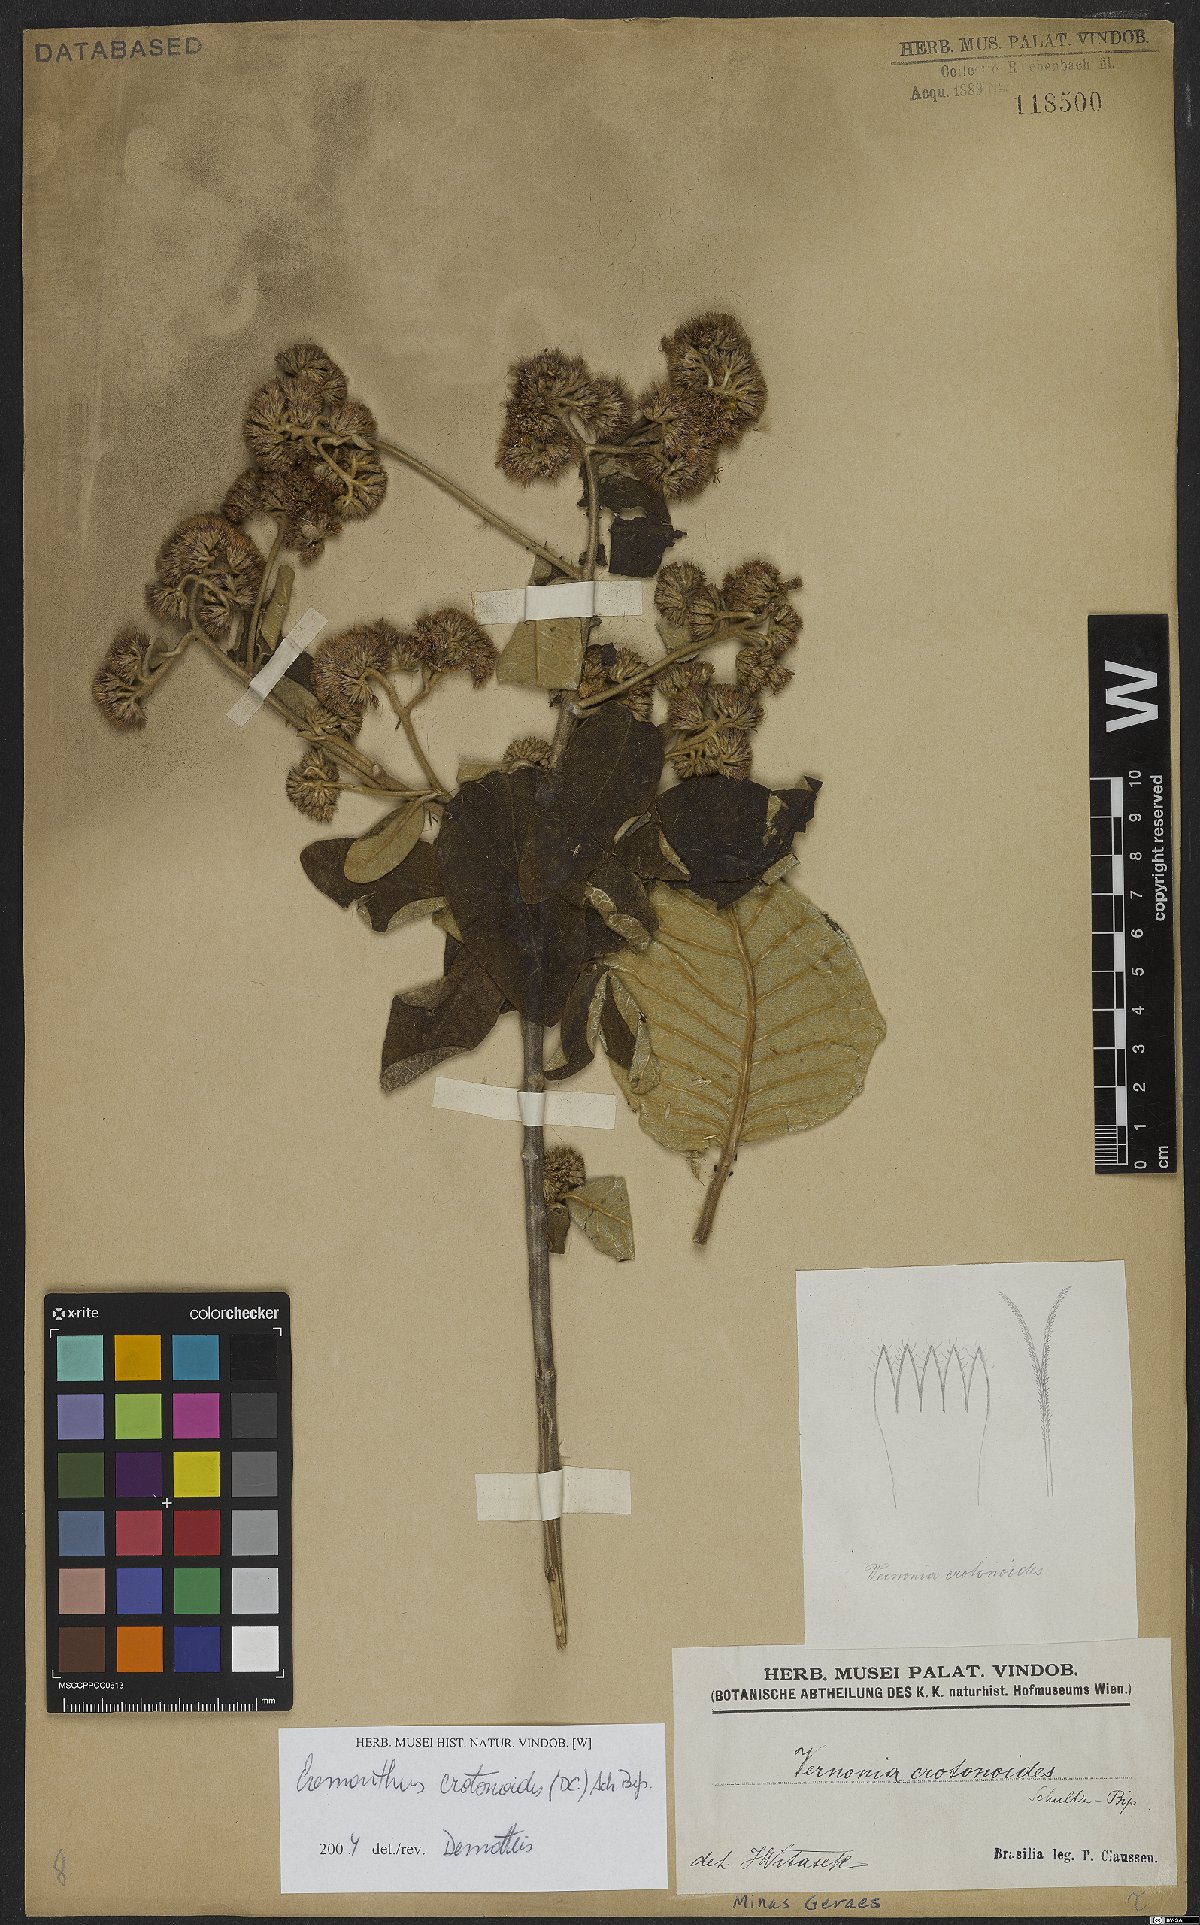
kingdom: Plantae
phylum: Tracheophyta
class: Magnoliopsida
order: Asterales
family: Asteraceae
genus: Eremanthus
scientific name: Eremanthus crotonoides
